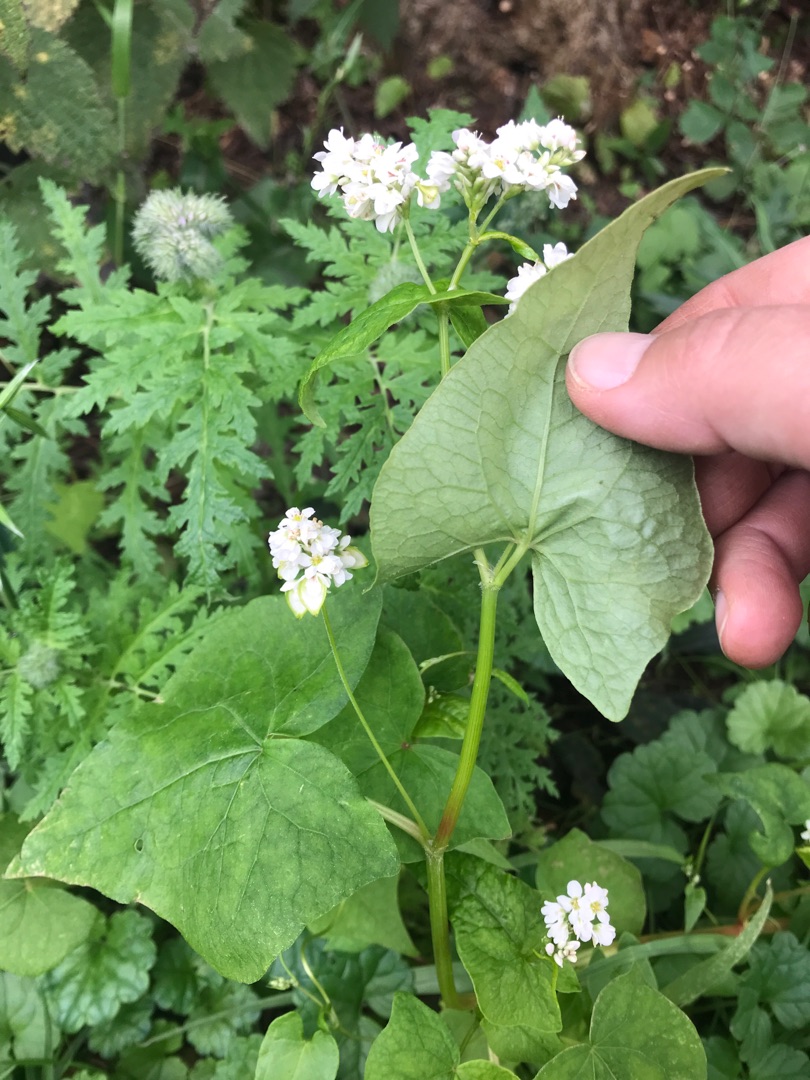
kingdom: Plantae
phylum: Tracheophyta
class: Magnoliopsida
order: Caryophyllales
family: Polygonaceae
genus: Fagopyrum
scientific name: Fagopyrum esculentum
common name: Almindelig boghvede
